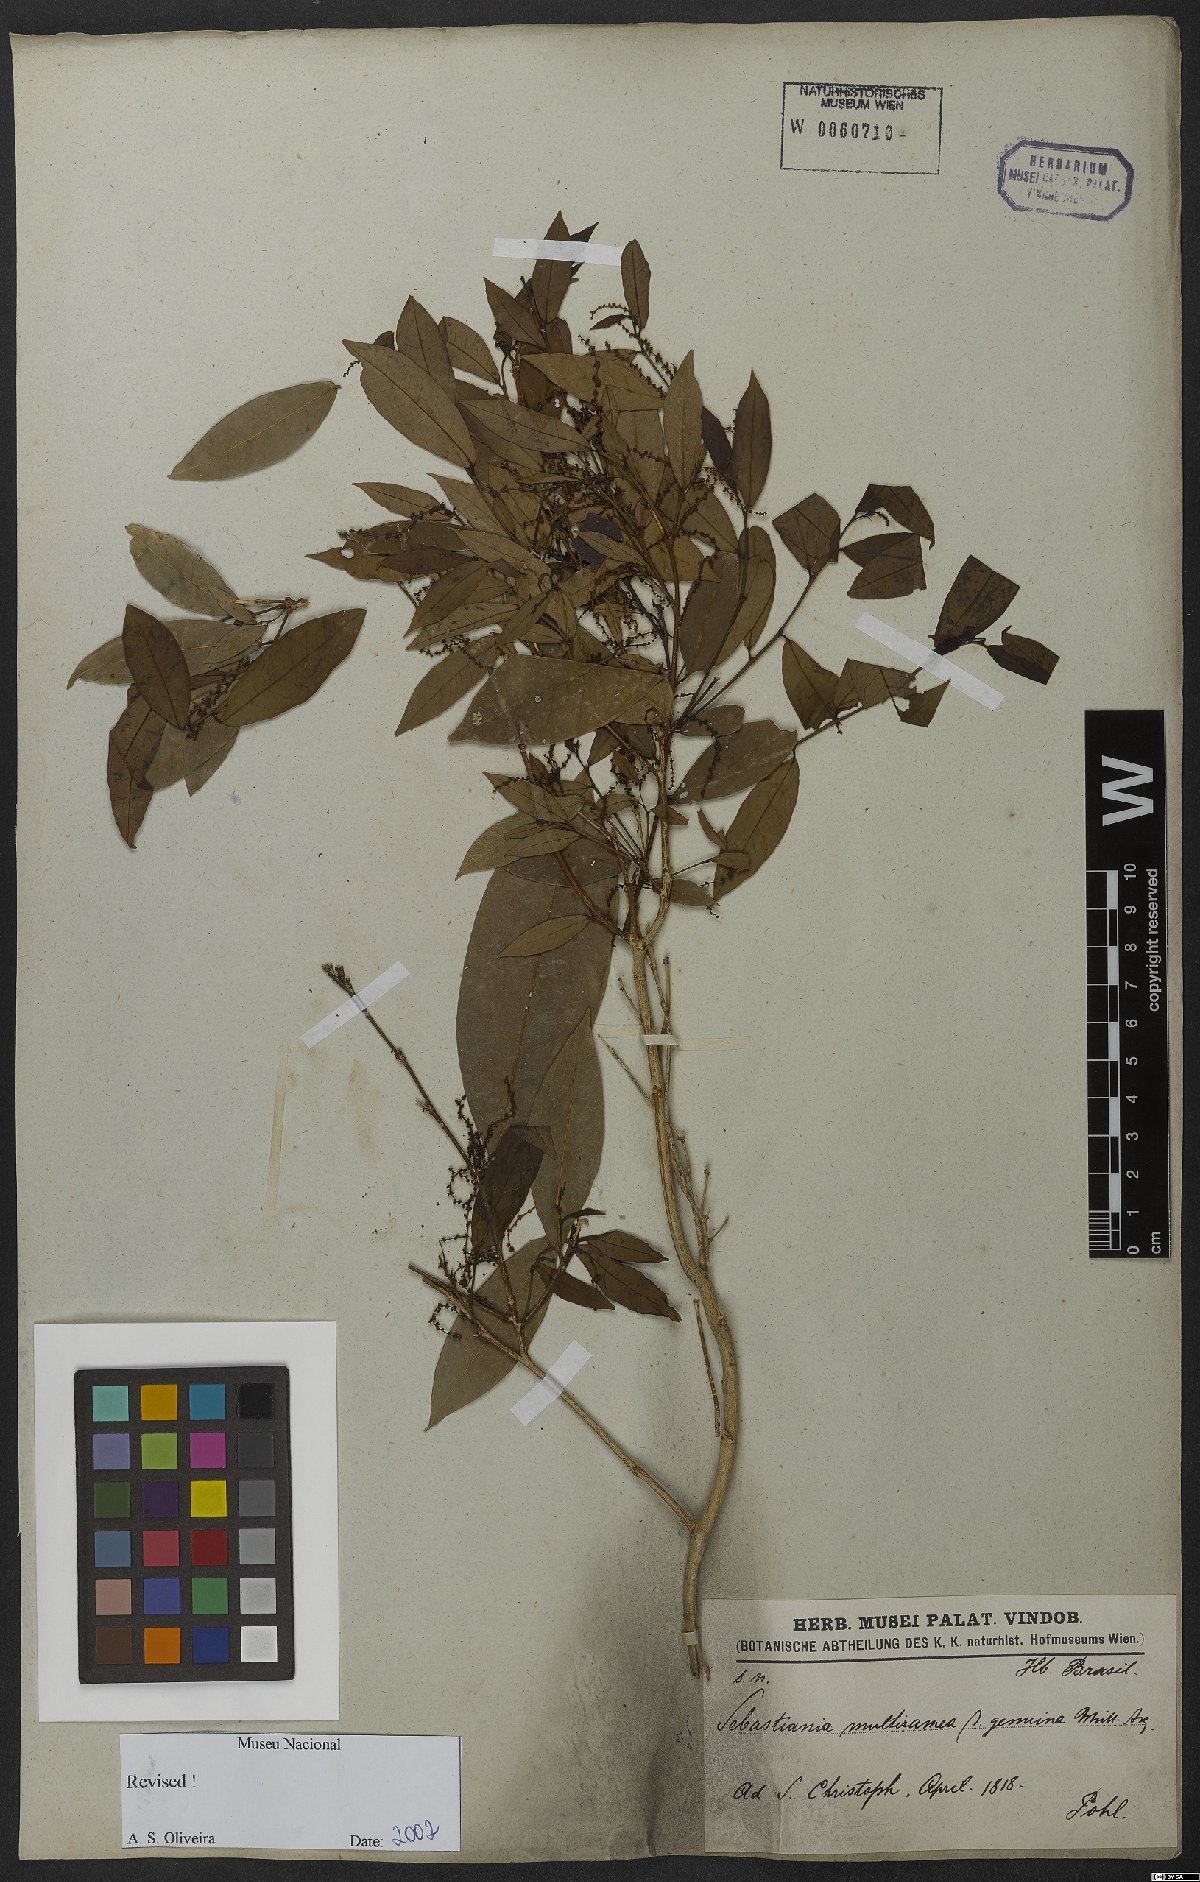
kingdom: Plantae
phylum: Tracheophyta
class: Magnoliopsida
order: Malpighiales
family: Euphorbiaceae
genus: Gymnanthes
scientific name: Gymnanthes glabrata
